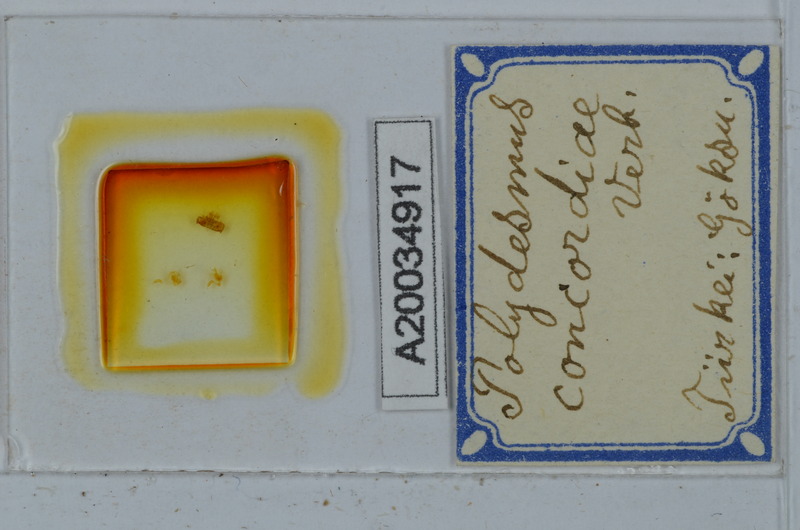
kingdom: Animalia
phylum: Arthropoda
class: Diplopoda
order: Polydesmida
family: Polydesmidae
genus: Polydesmus
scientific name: Polydesmus concordiae
